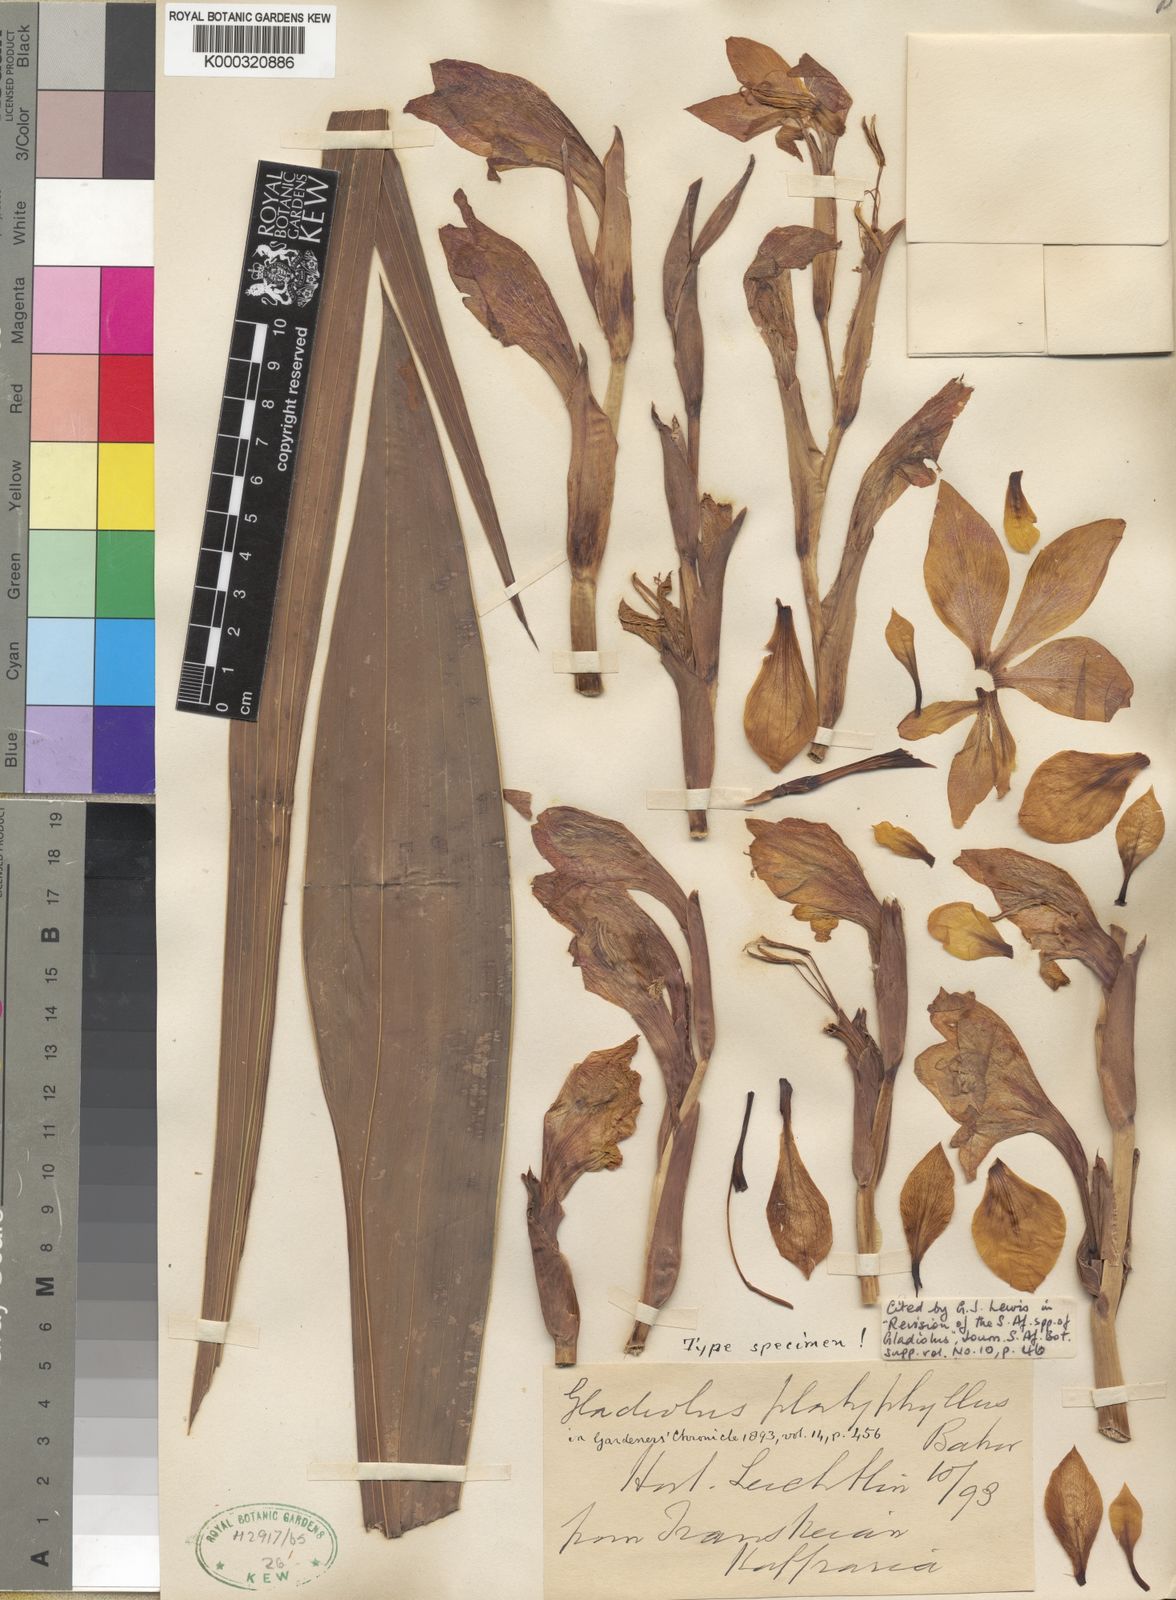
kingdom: Plantae
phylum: Tracheophyta
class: Liliopsida
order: Asparagales
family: Iridaceae
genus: Gladiolus
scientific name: Gladiolus dalenii
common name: Cornflag
